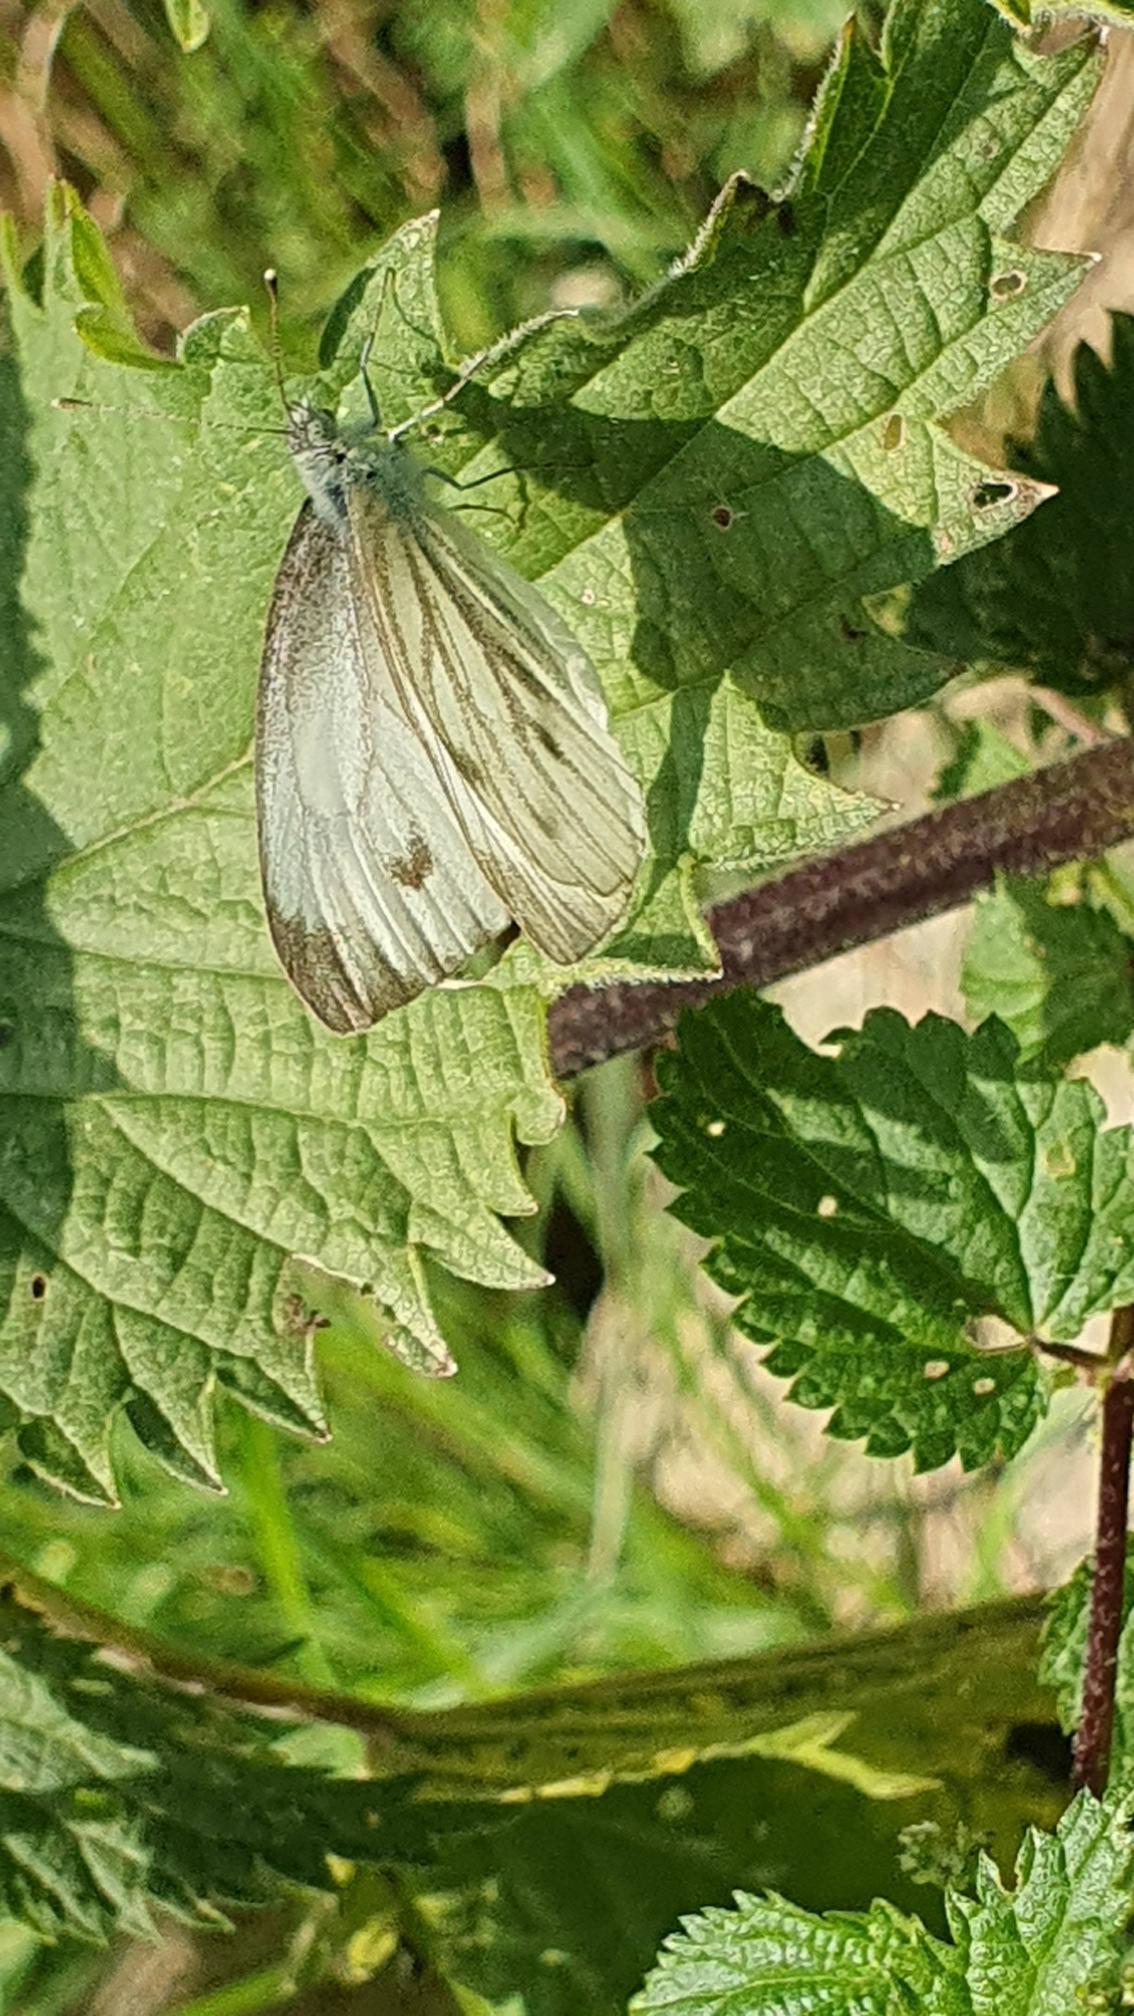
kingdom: Animalia
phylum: Arthropoda
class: Insecta
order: Lepidoptera
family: Pieridae
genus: Pieris
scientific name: Pieris napi
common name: Grønåret kålsommerfugl
